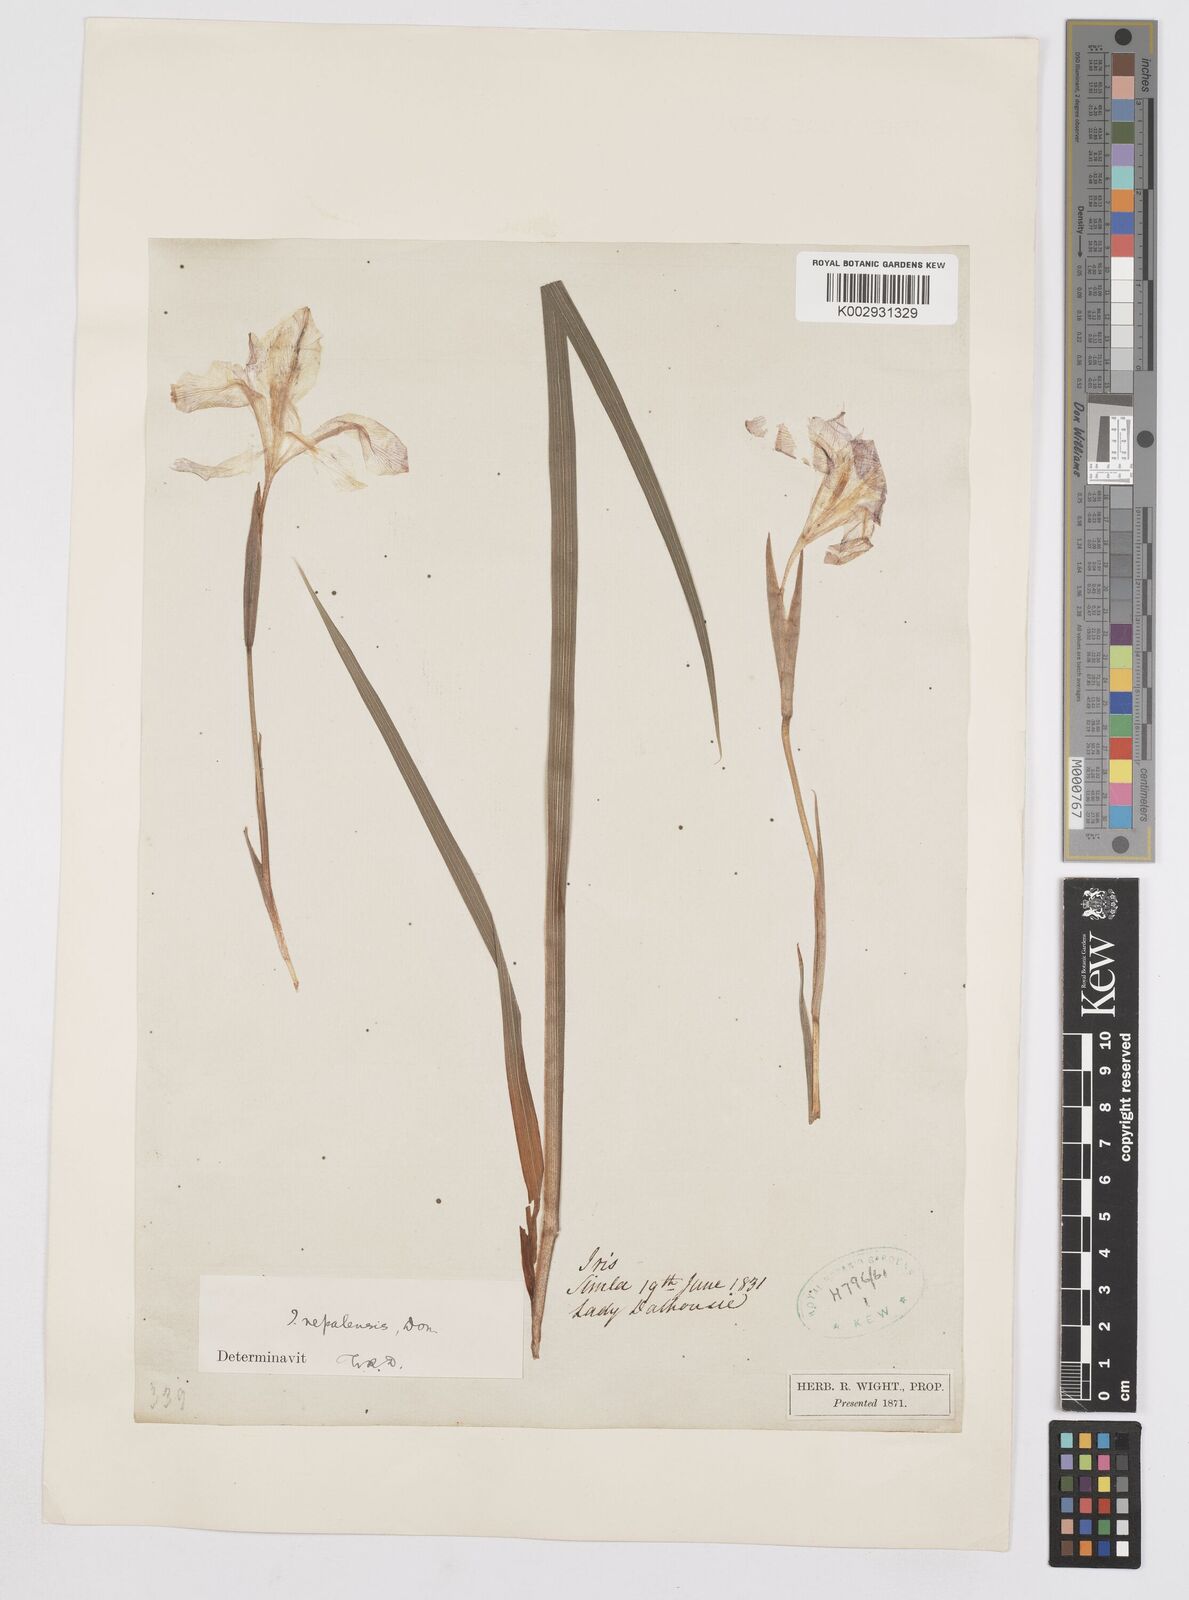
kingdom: Plantae
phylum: Tracheophyta
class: Liliopsida
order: Asparagales
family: Iridaceae
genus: Iris
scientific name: Iris decora
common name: Nepal iris
